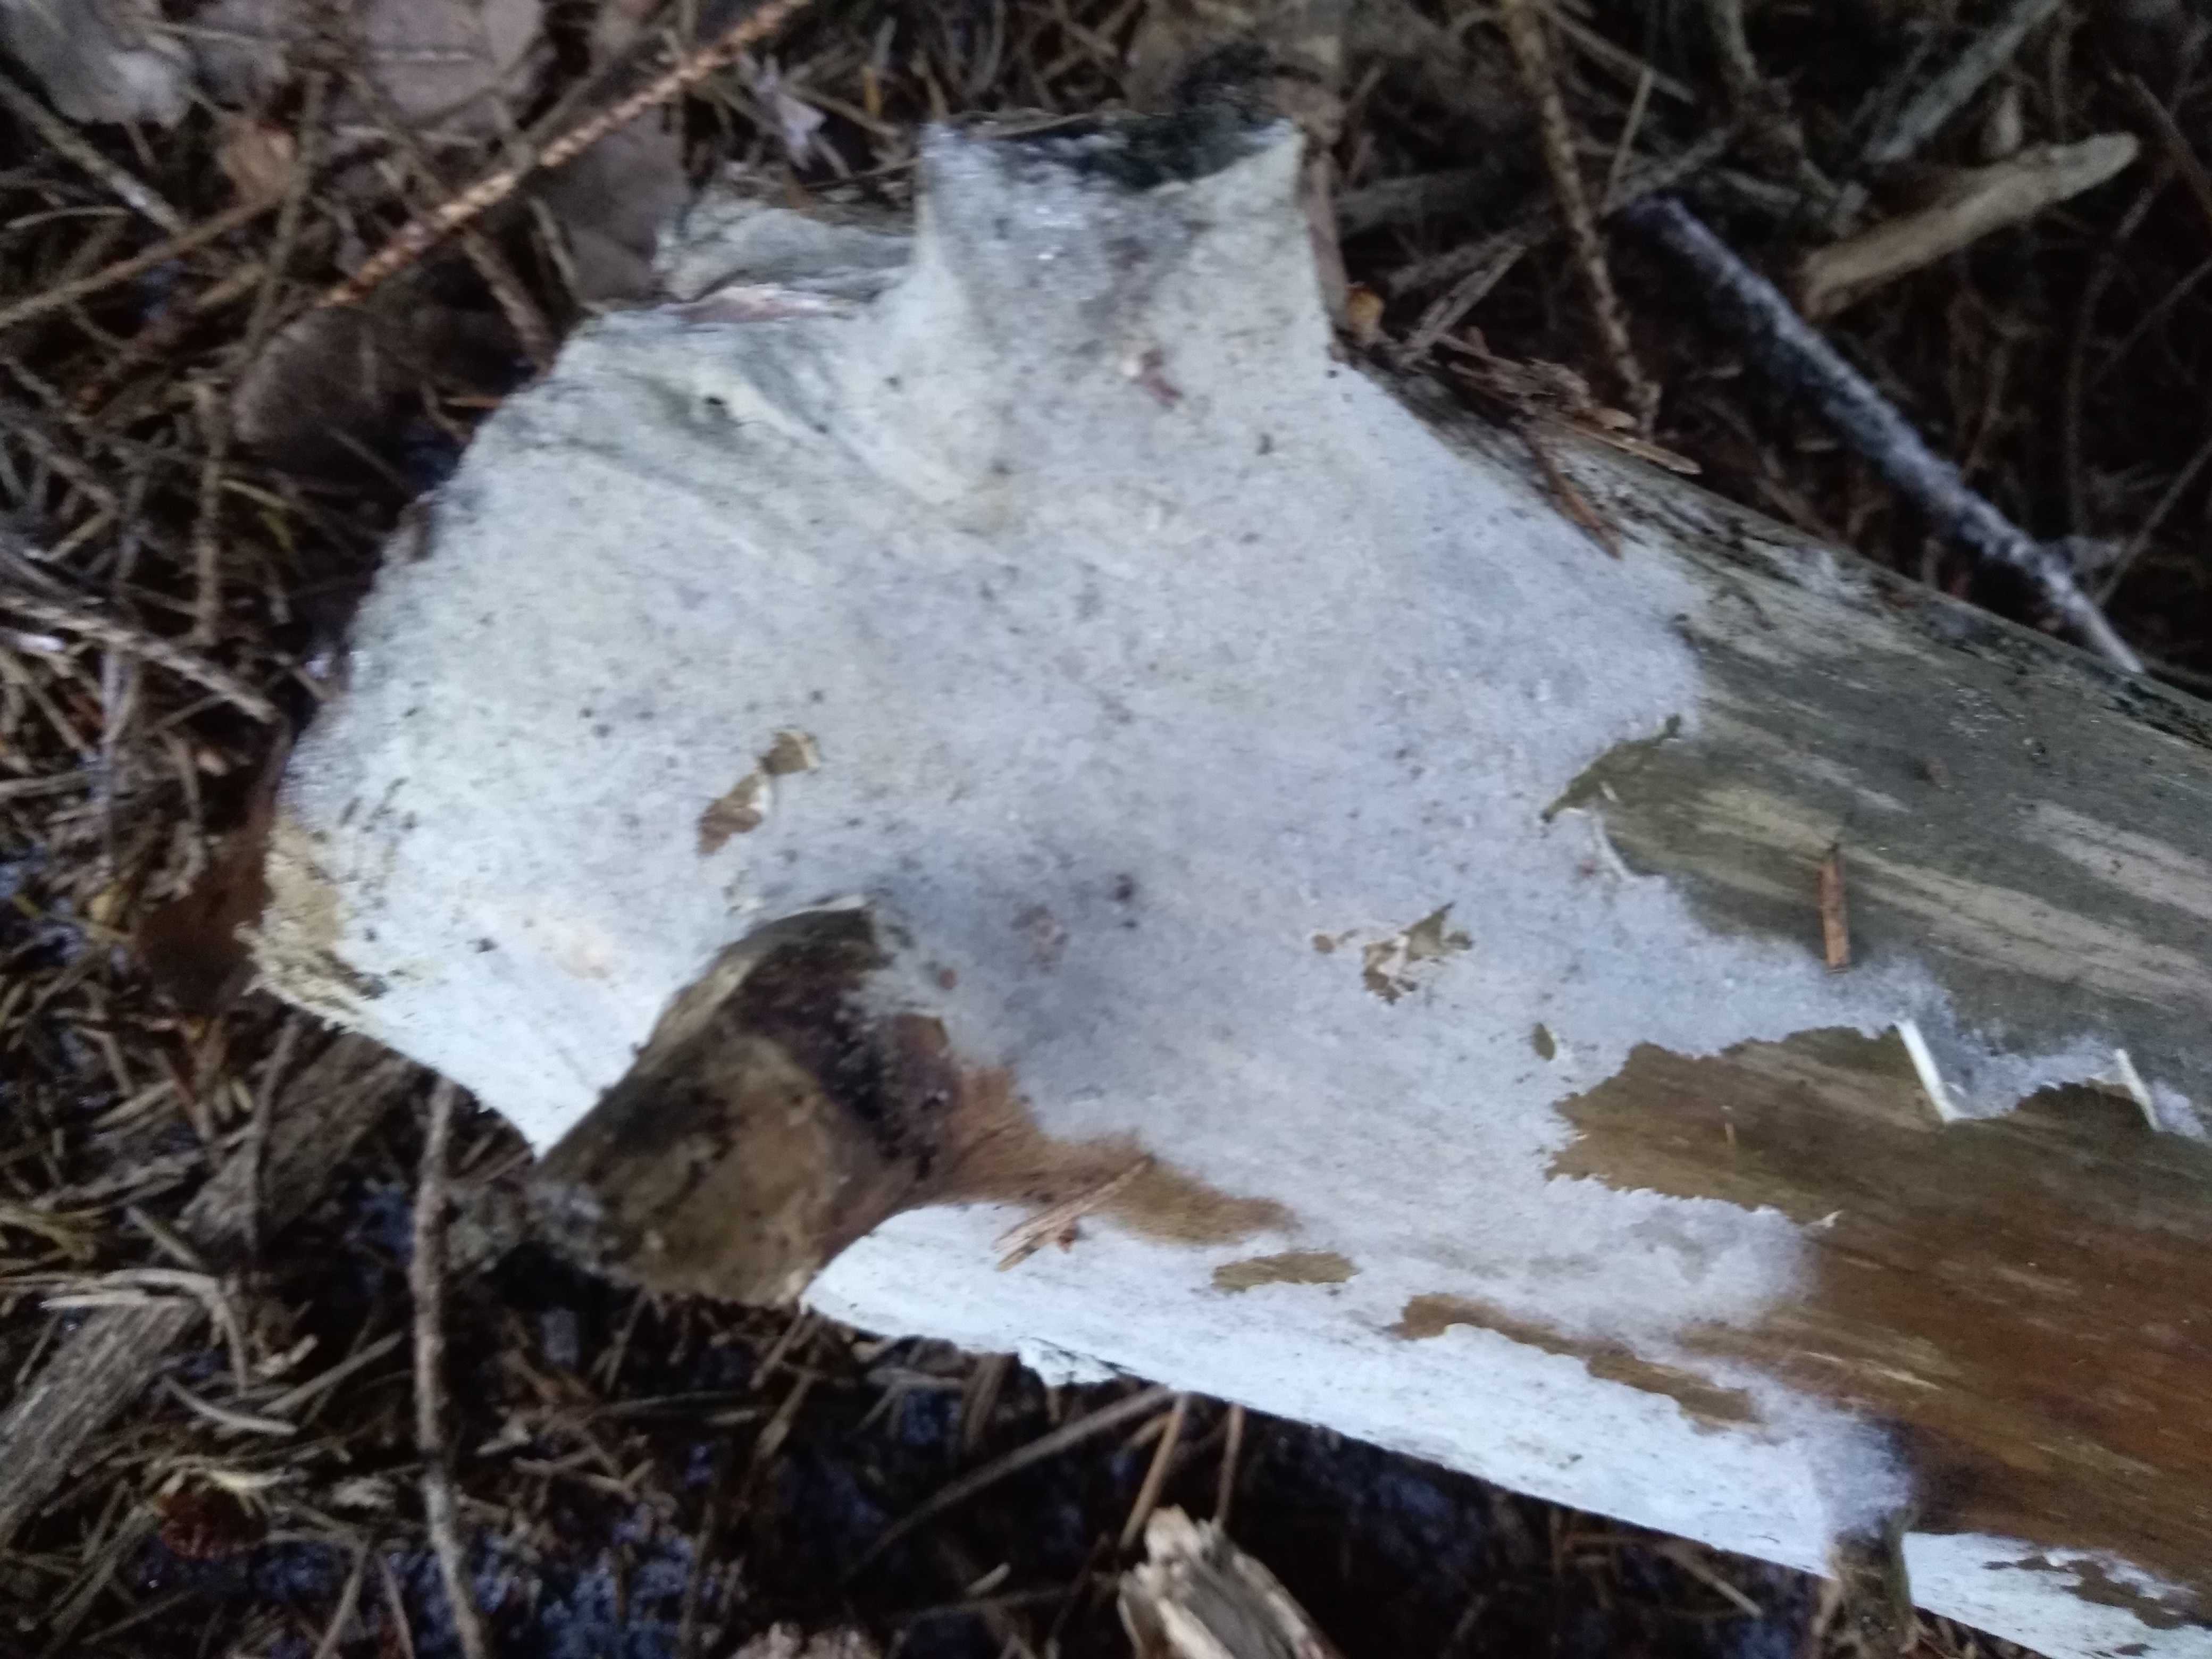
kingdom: Fungi
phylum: Basidiomycota
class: Agaricomycetes
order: Corticiales
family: Corticiaceae
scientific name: Corticiaceae
